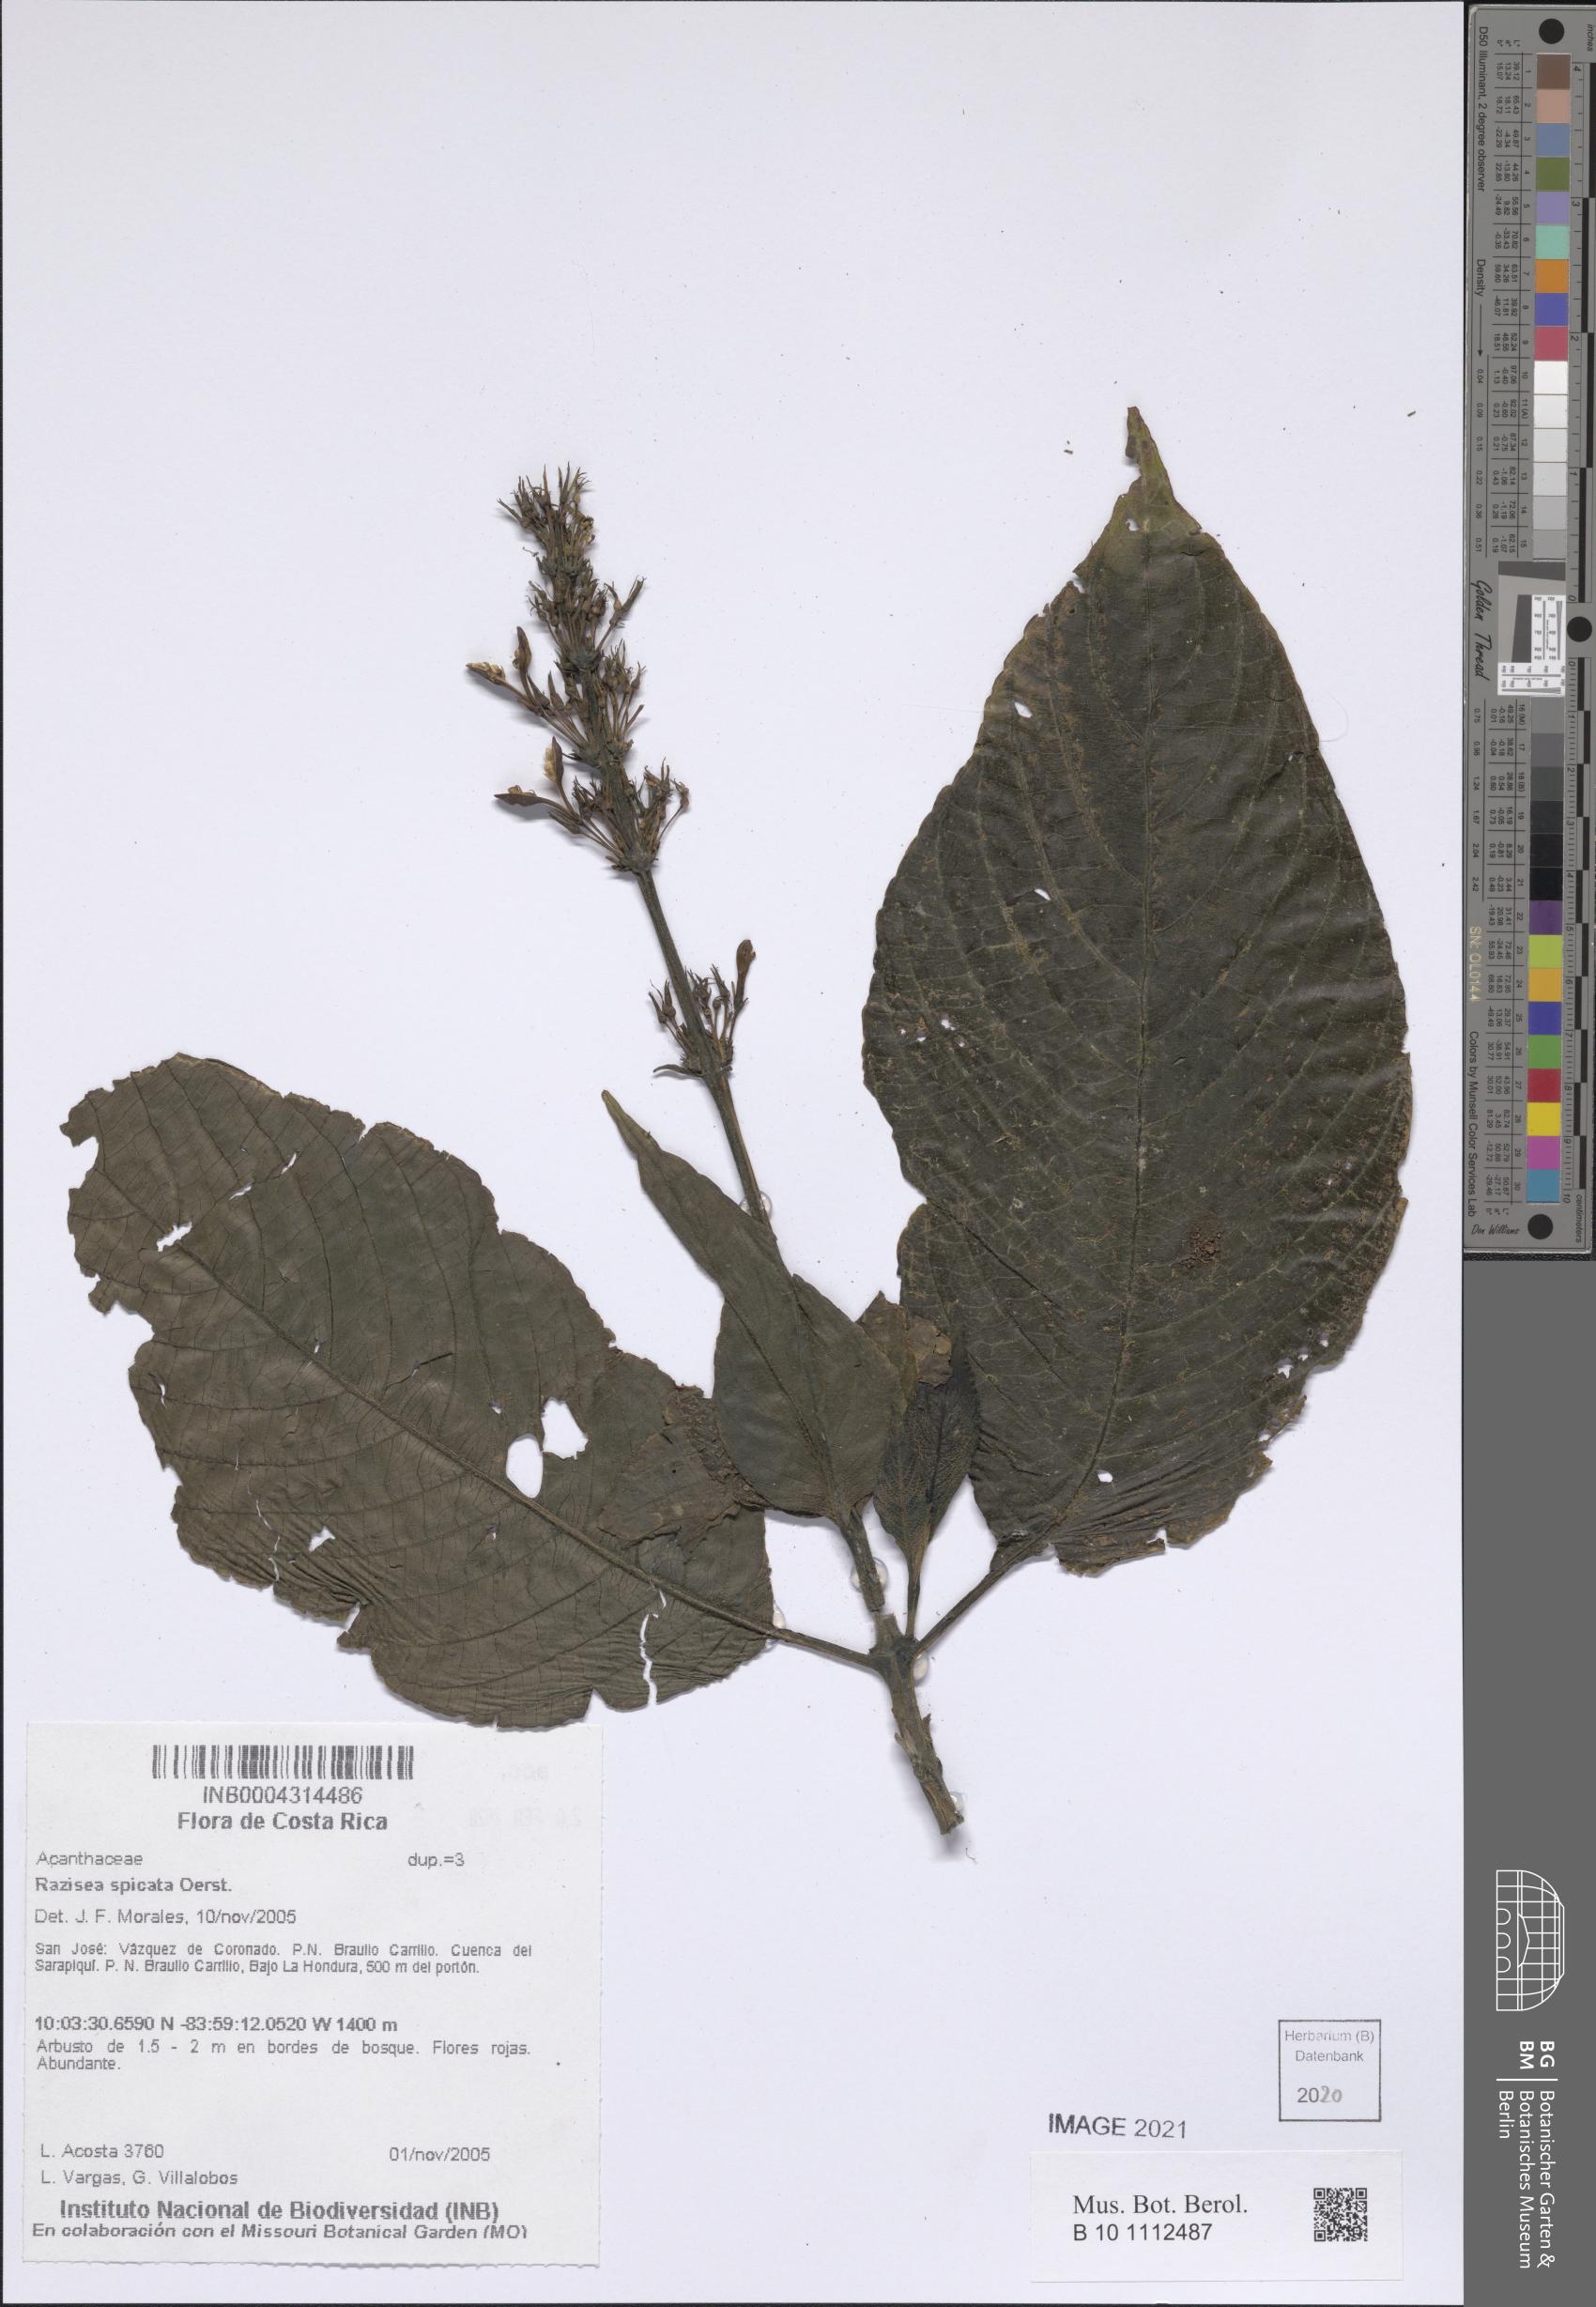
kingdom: Plantae
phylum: Tracheophyta
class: Magnoliopsida
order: Lamiales
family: Acanthaceae
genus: Stenostephanus
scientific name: Stenostephanus leiorhachis
